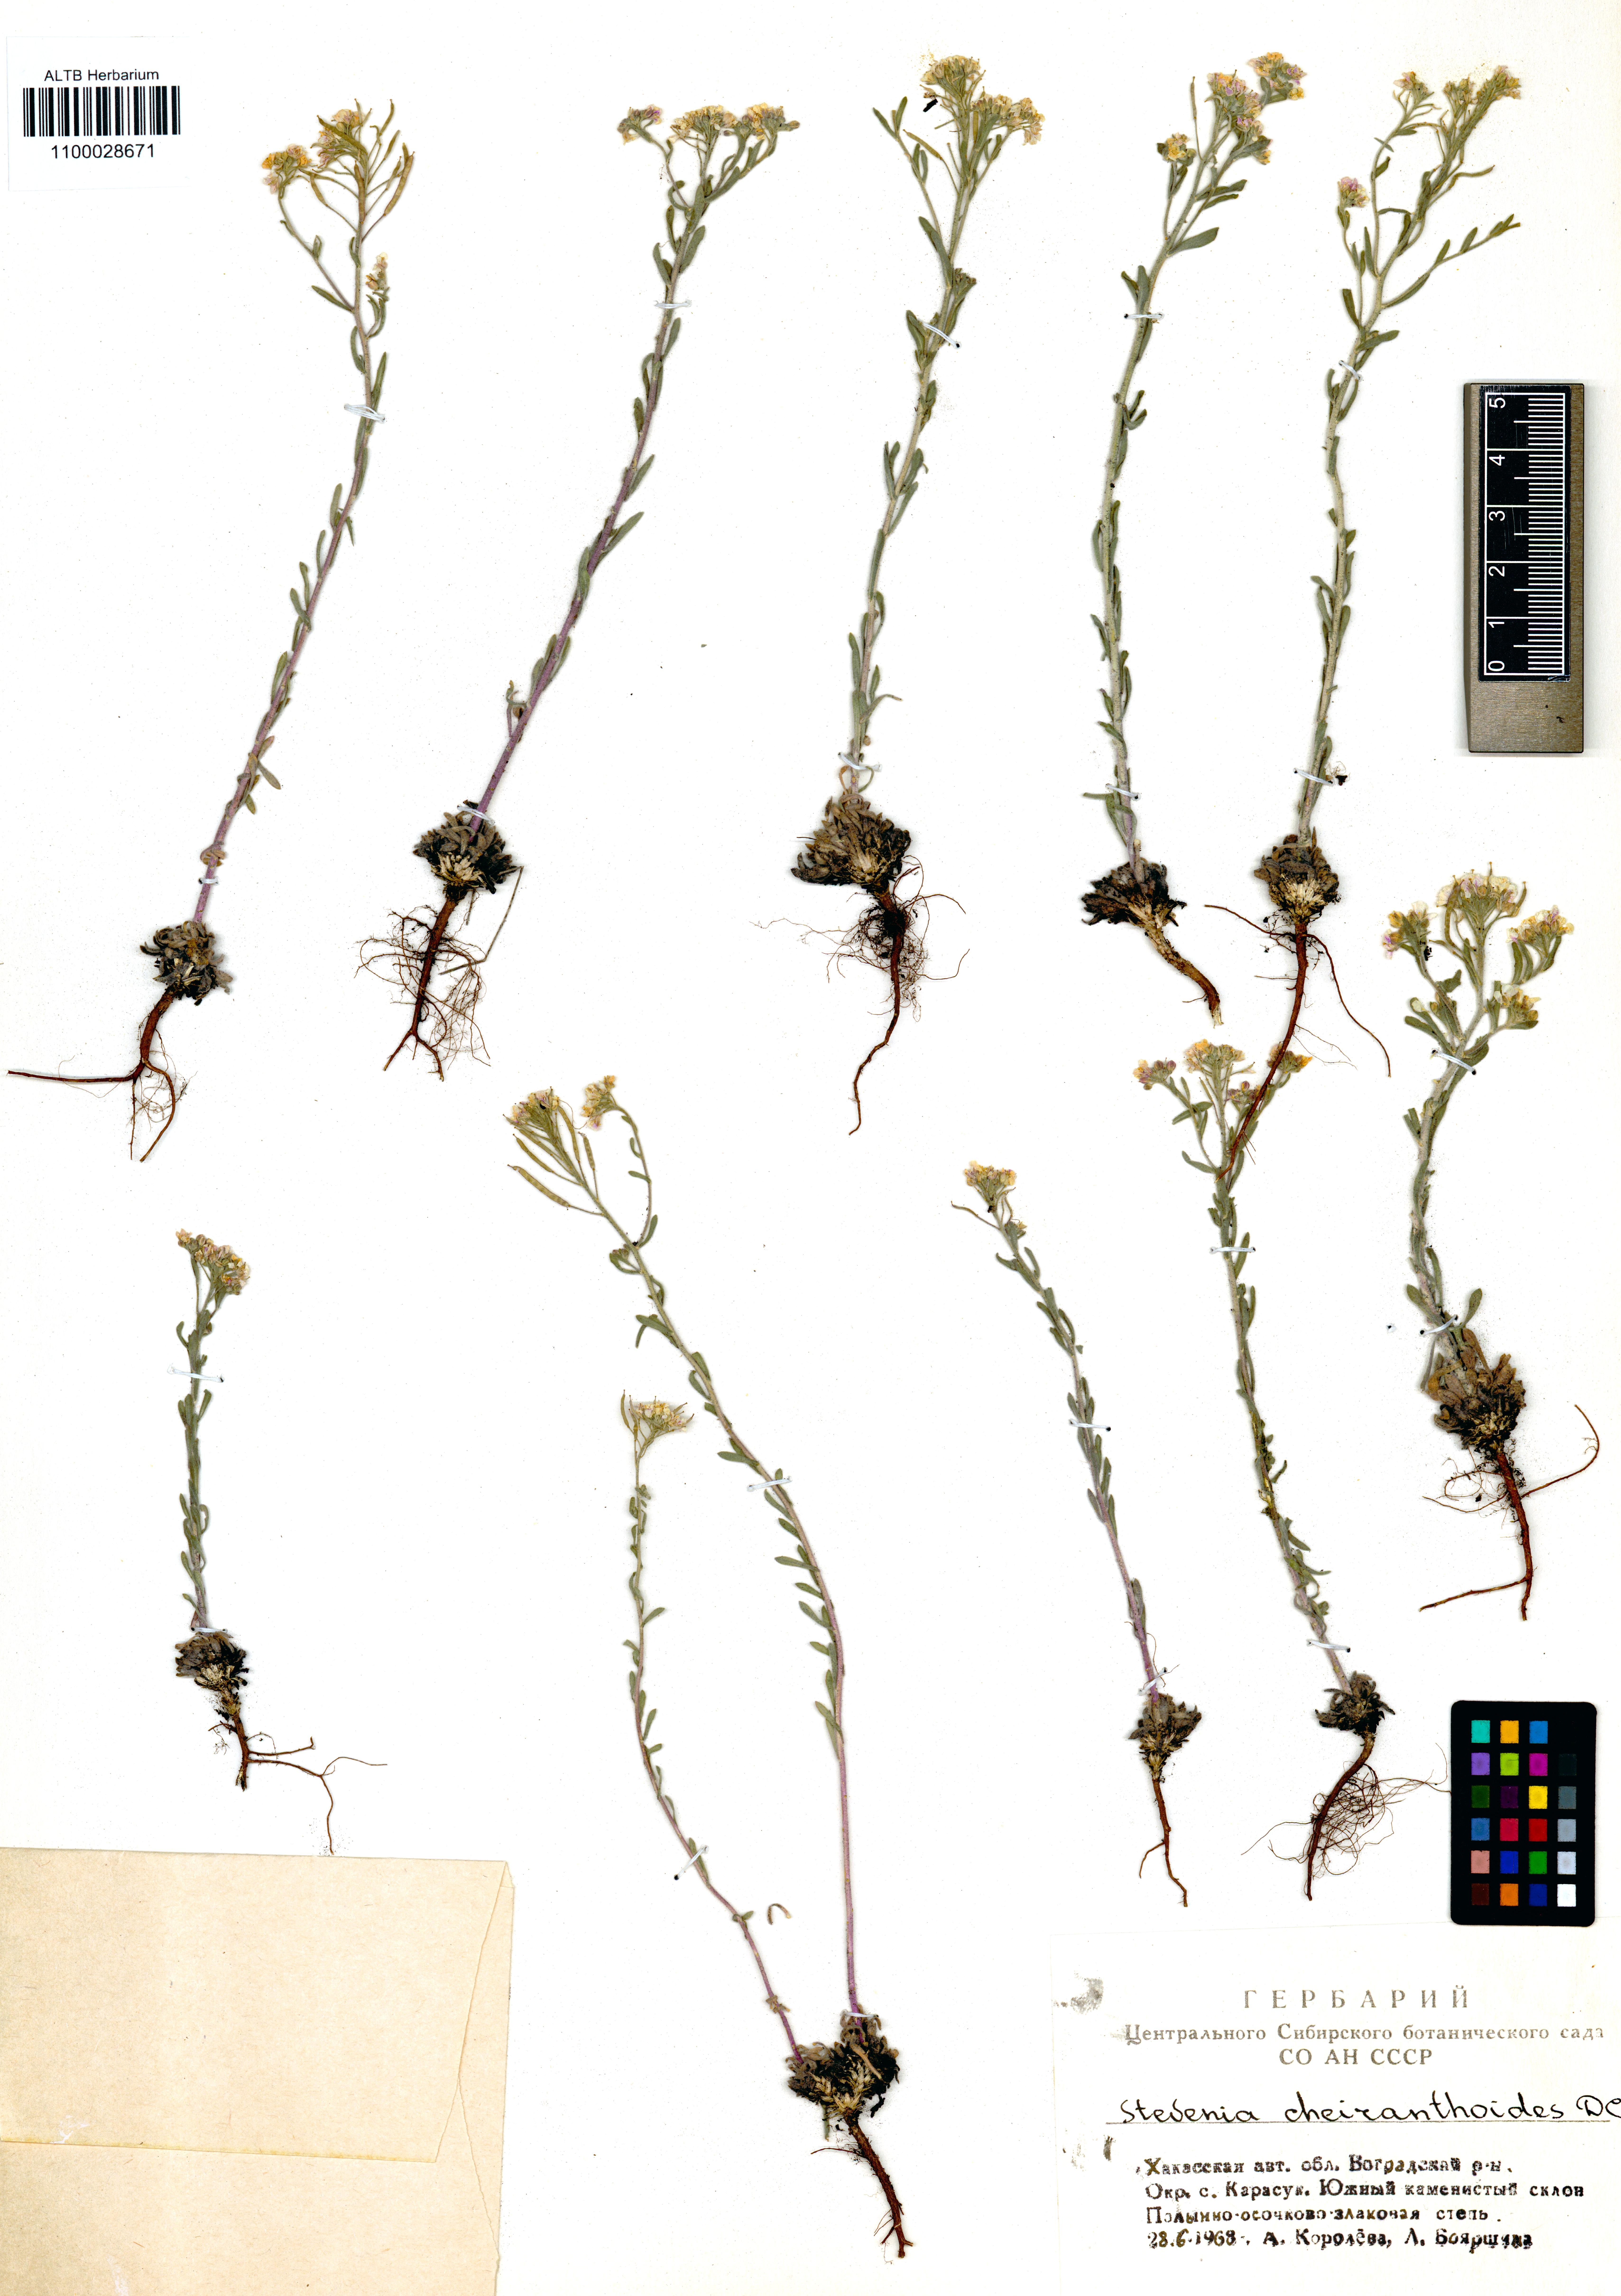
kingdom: Plantae
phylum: Tracheophyta
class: Magnoliopsida
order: Brassicales
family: Brassicaceae
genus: Stevenia
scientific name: Stevenia incarnata
